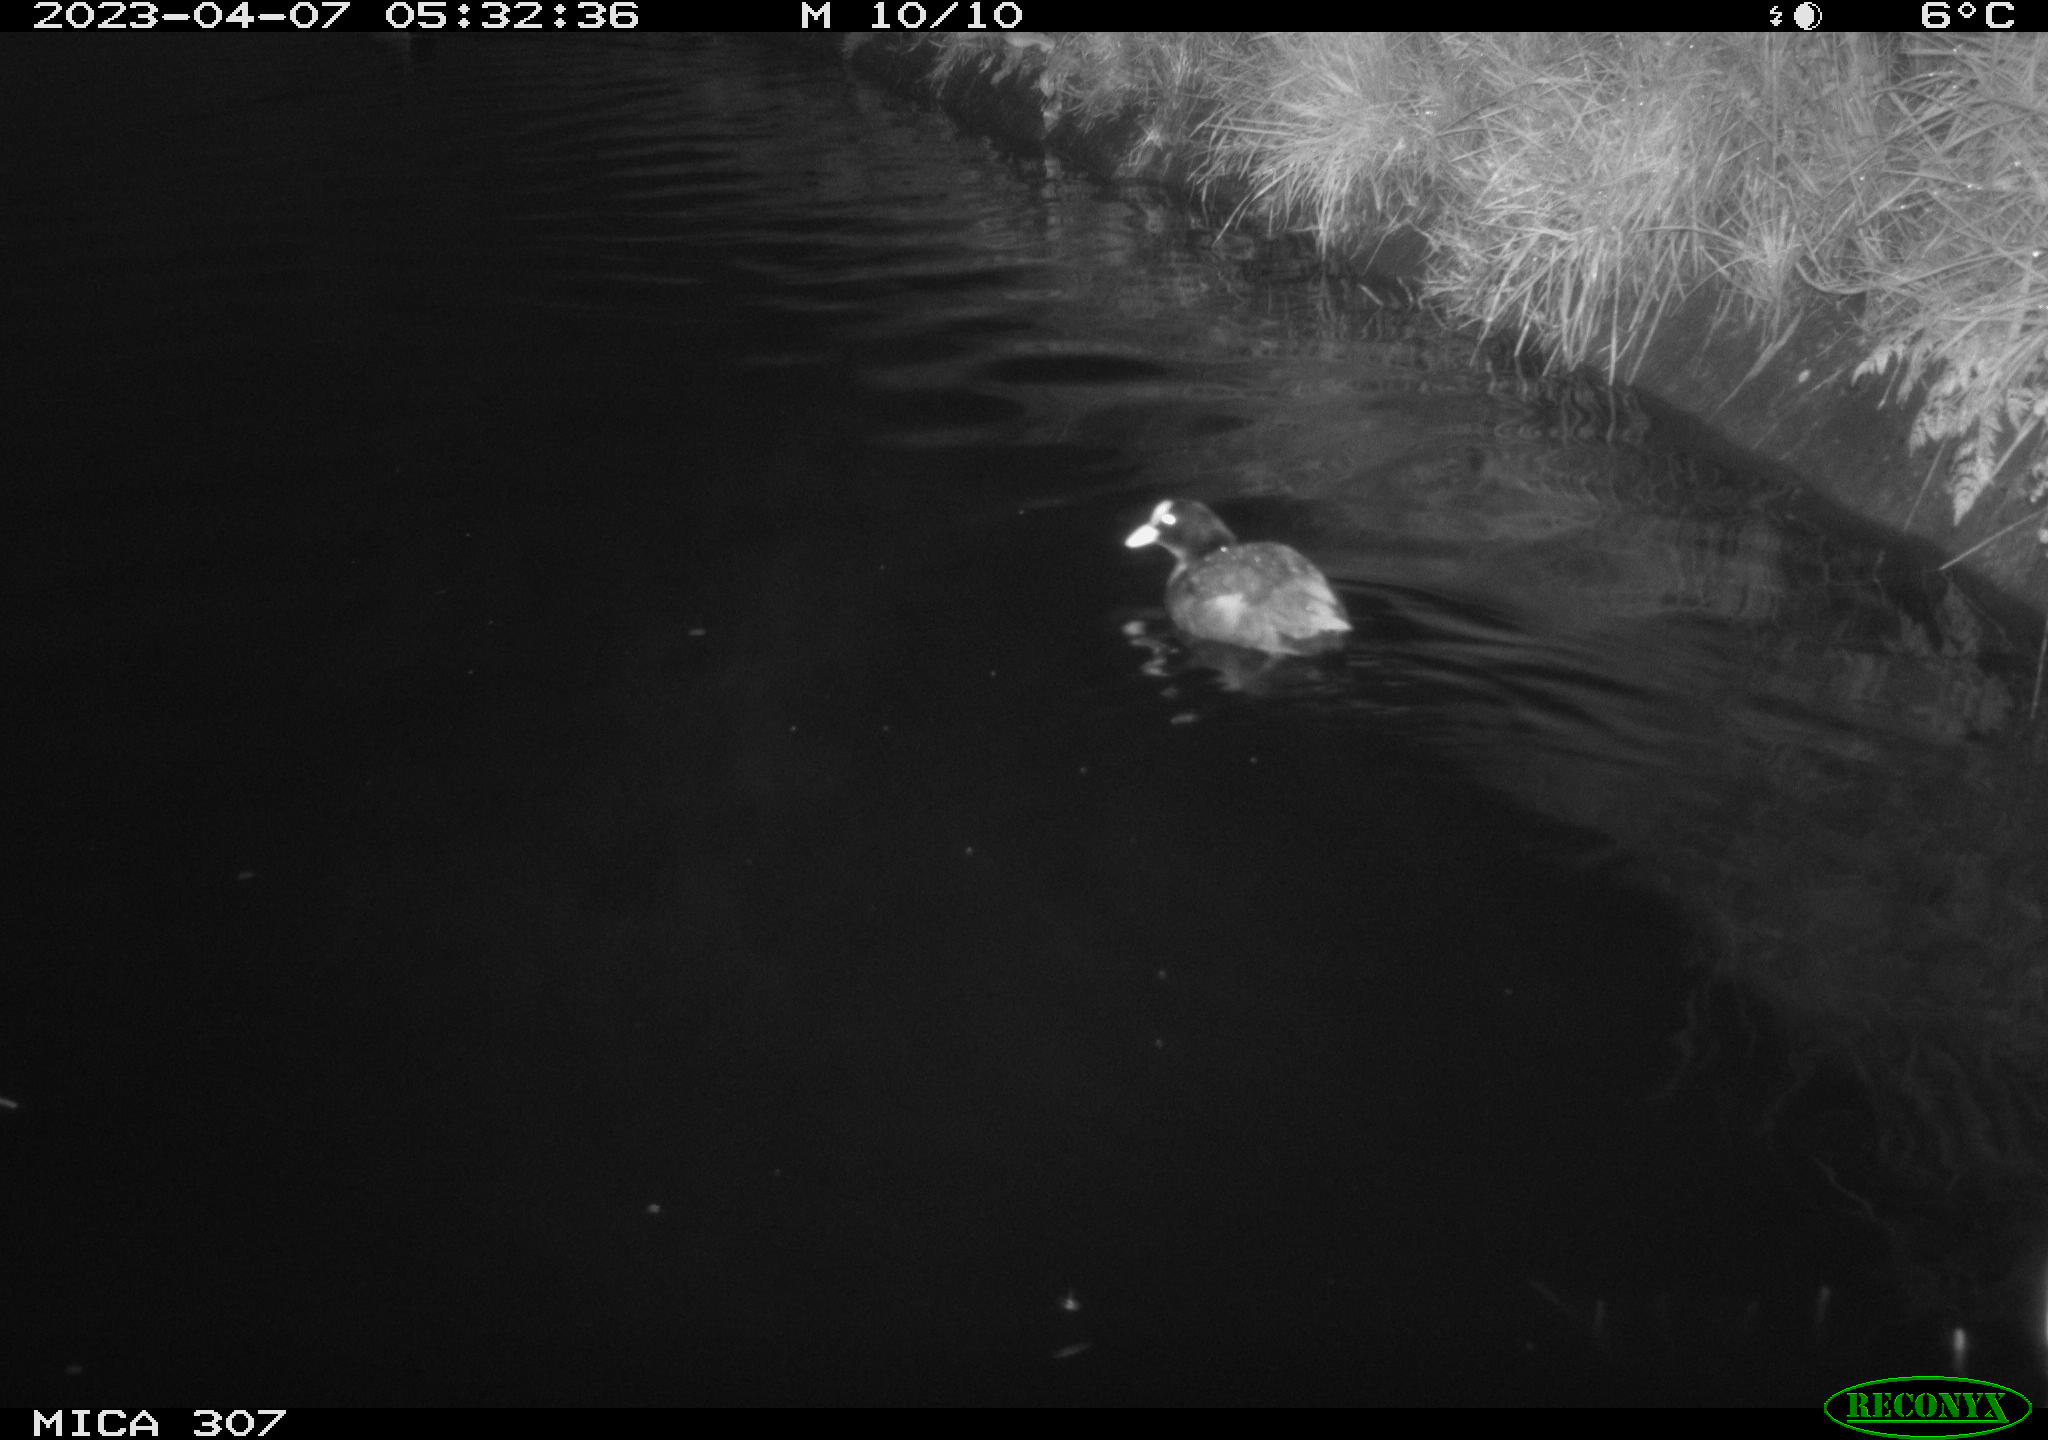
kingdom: Animalia
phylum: Chordata
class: Aves
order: Anseriformes
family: Anatidae
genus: Anas
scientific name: Anas
